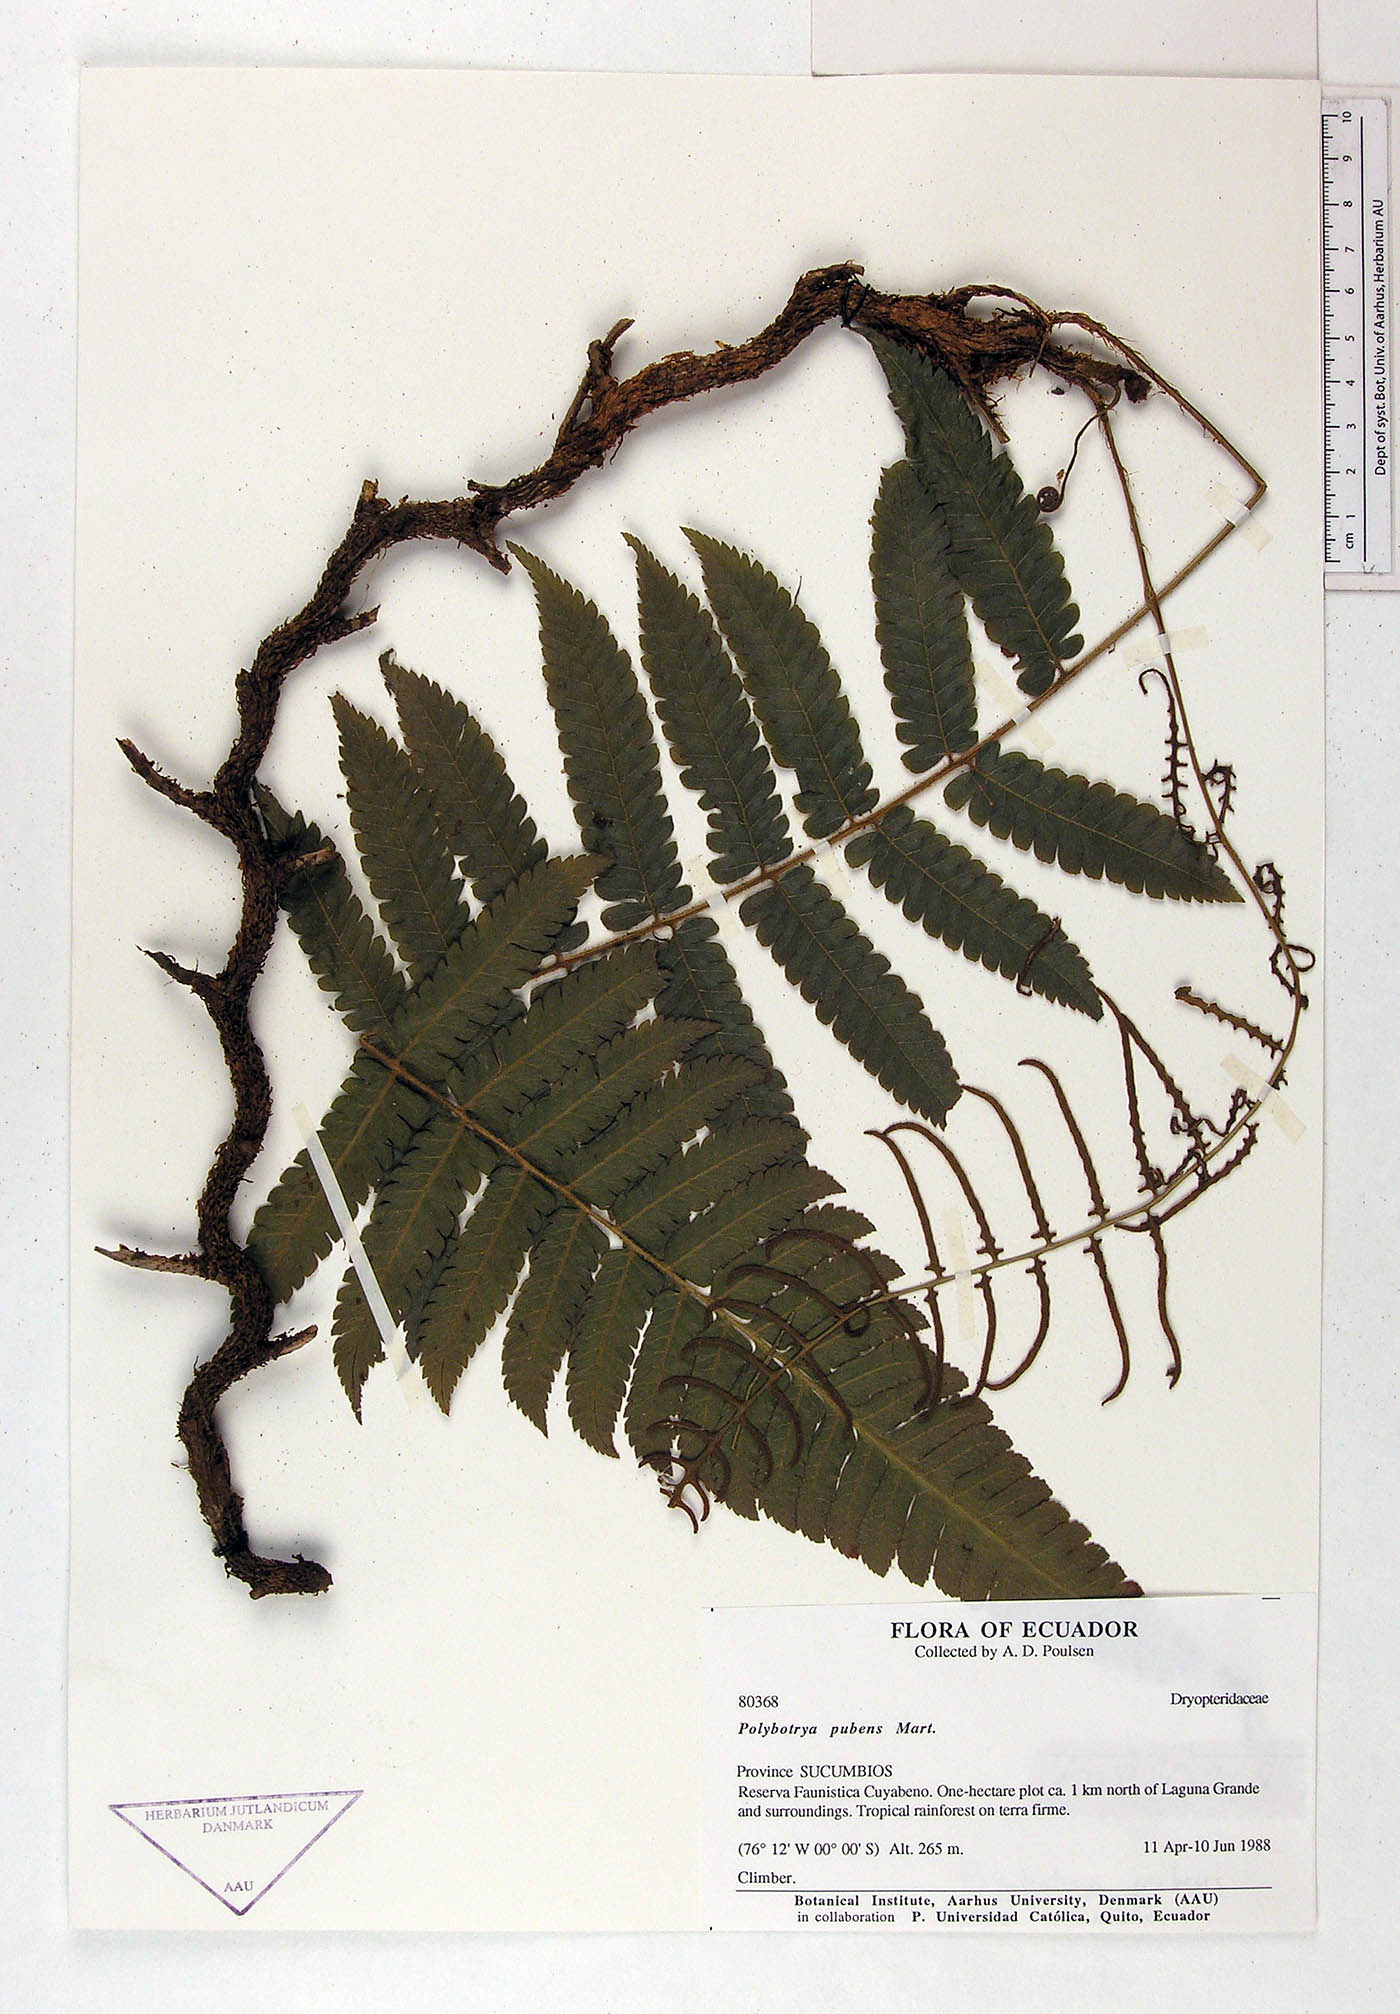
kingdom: Plantae
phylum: Tracheophyta
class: Polypodiopsida
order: Polypodiales
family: Dryopteridaceae
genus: Polybotrya
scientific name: Polybotrya pubens
